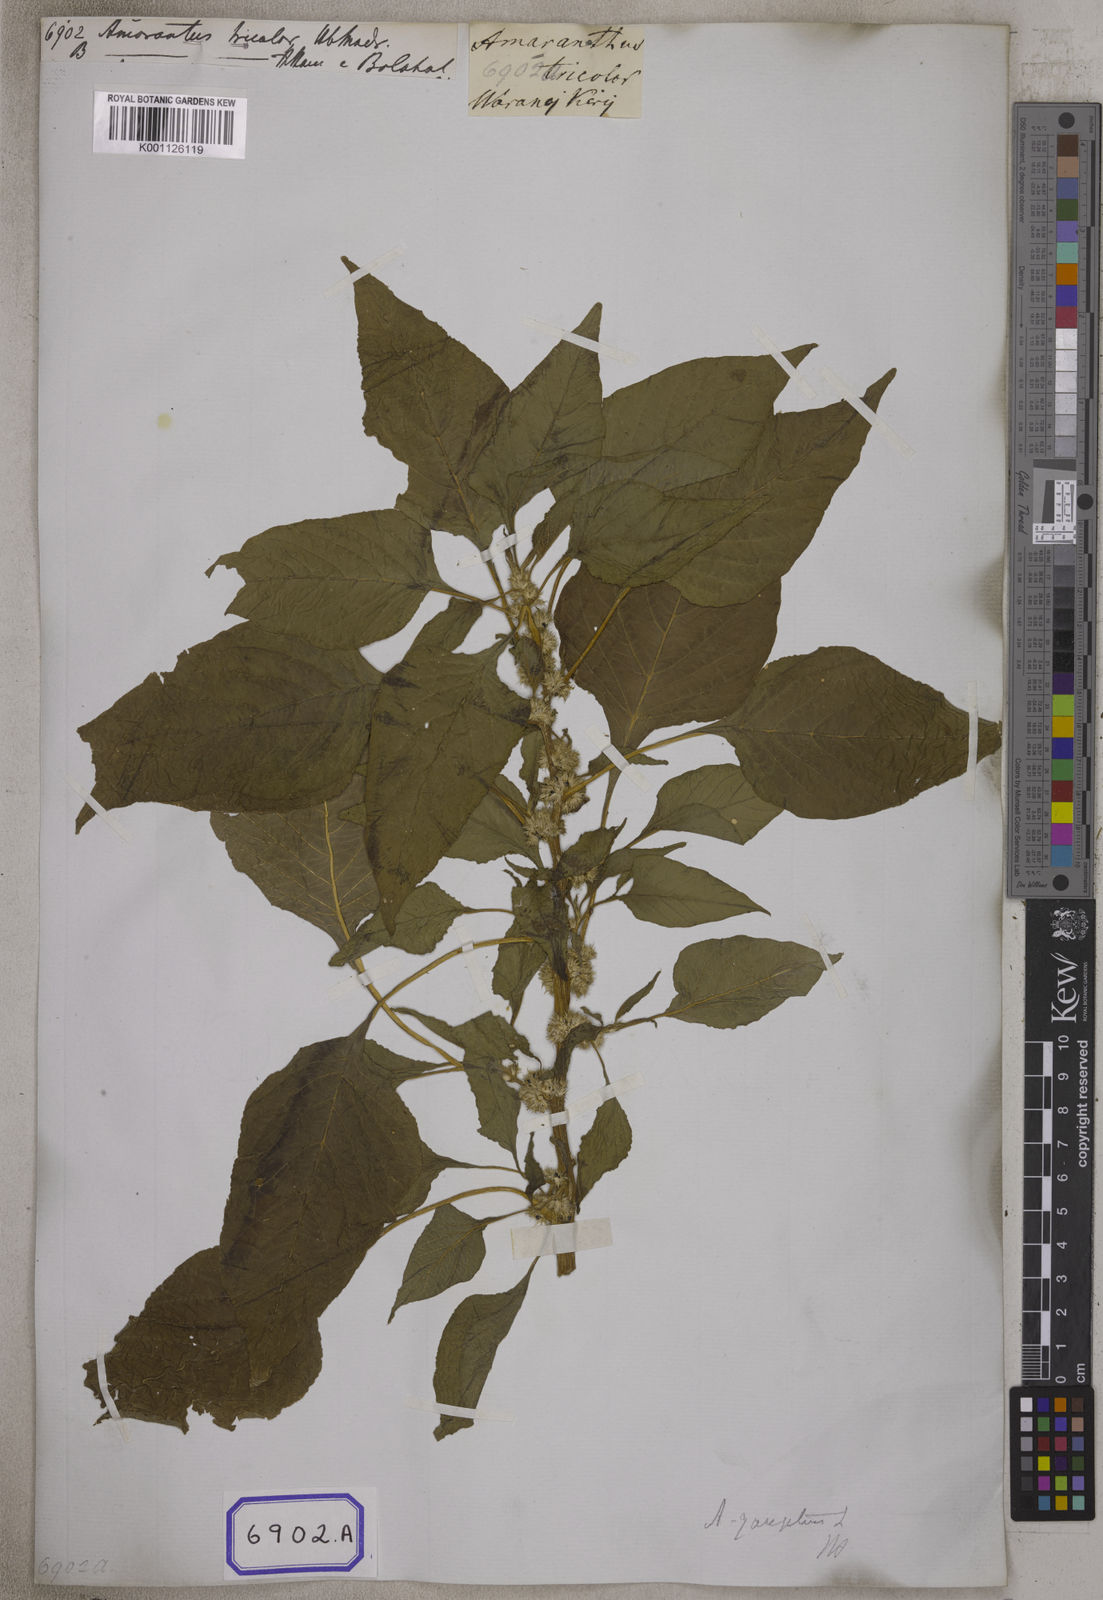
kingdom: Plantae
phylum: Tracheophyta
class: Magnoliopsida
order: Caryophyllales
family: Amaranthaceae
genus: Amaranthus
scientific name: Amaranthus tricolor
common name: Joseph's-coat
